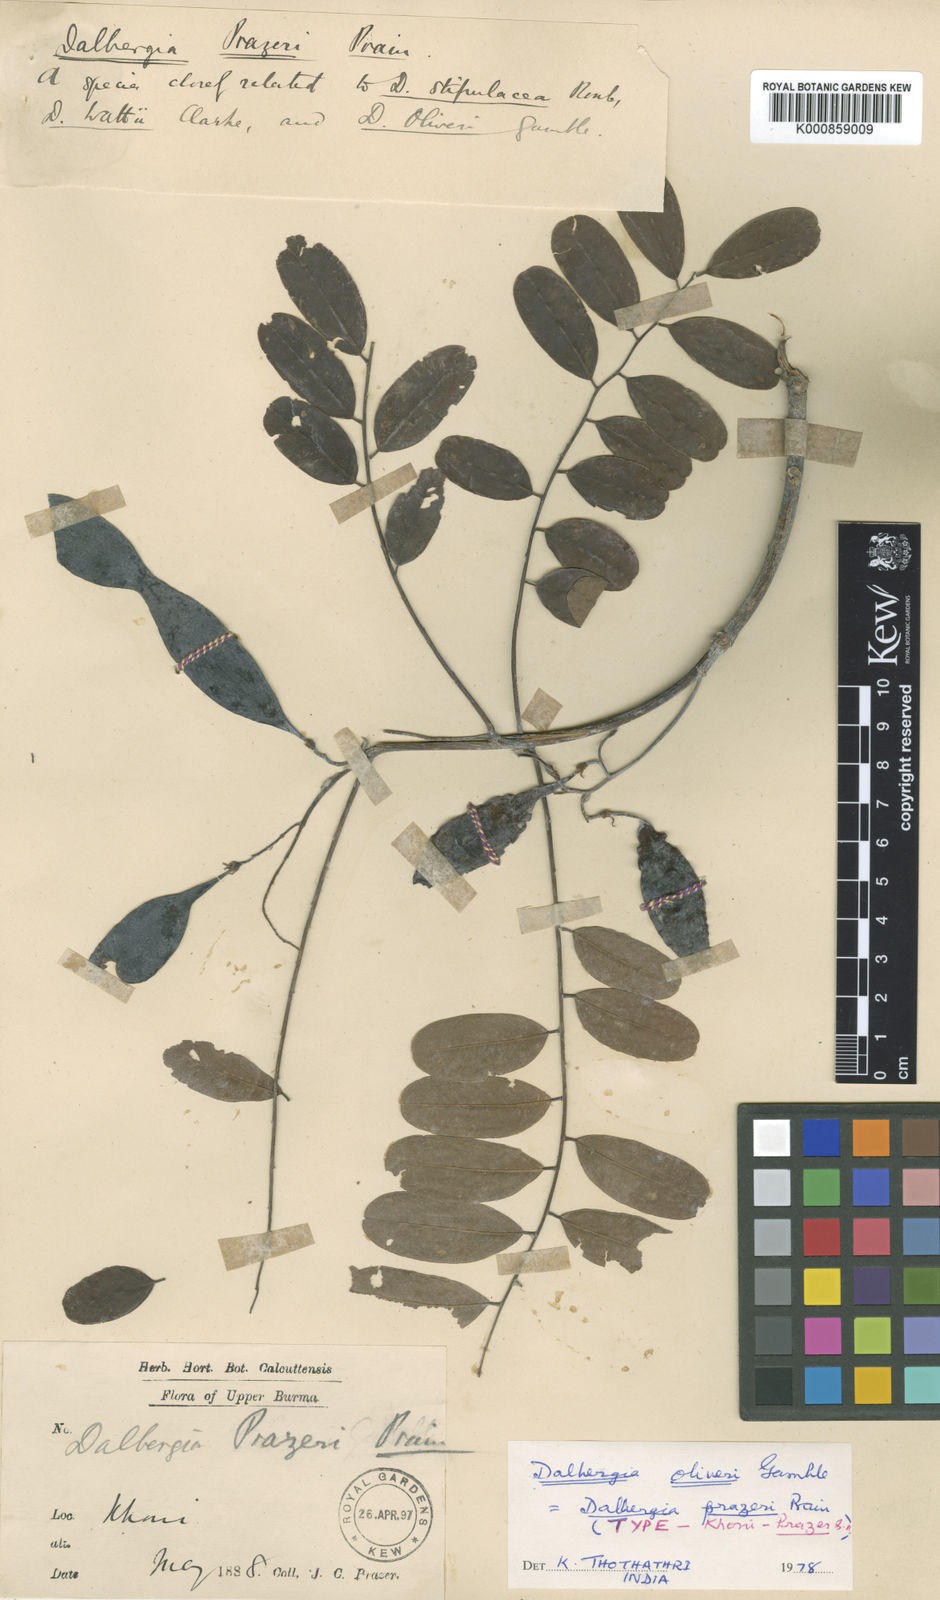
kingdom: Plantae
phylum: Tracheophyta
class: Magnoliopsida
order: Fabales
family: Fabaceae
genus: Dalbergia
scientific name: Dalbergia oliveri
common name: Burmese rosewood
